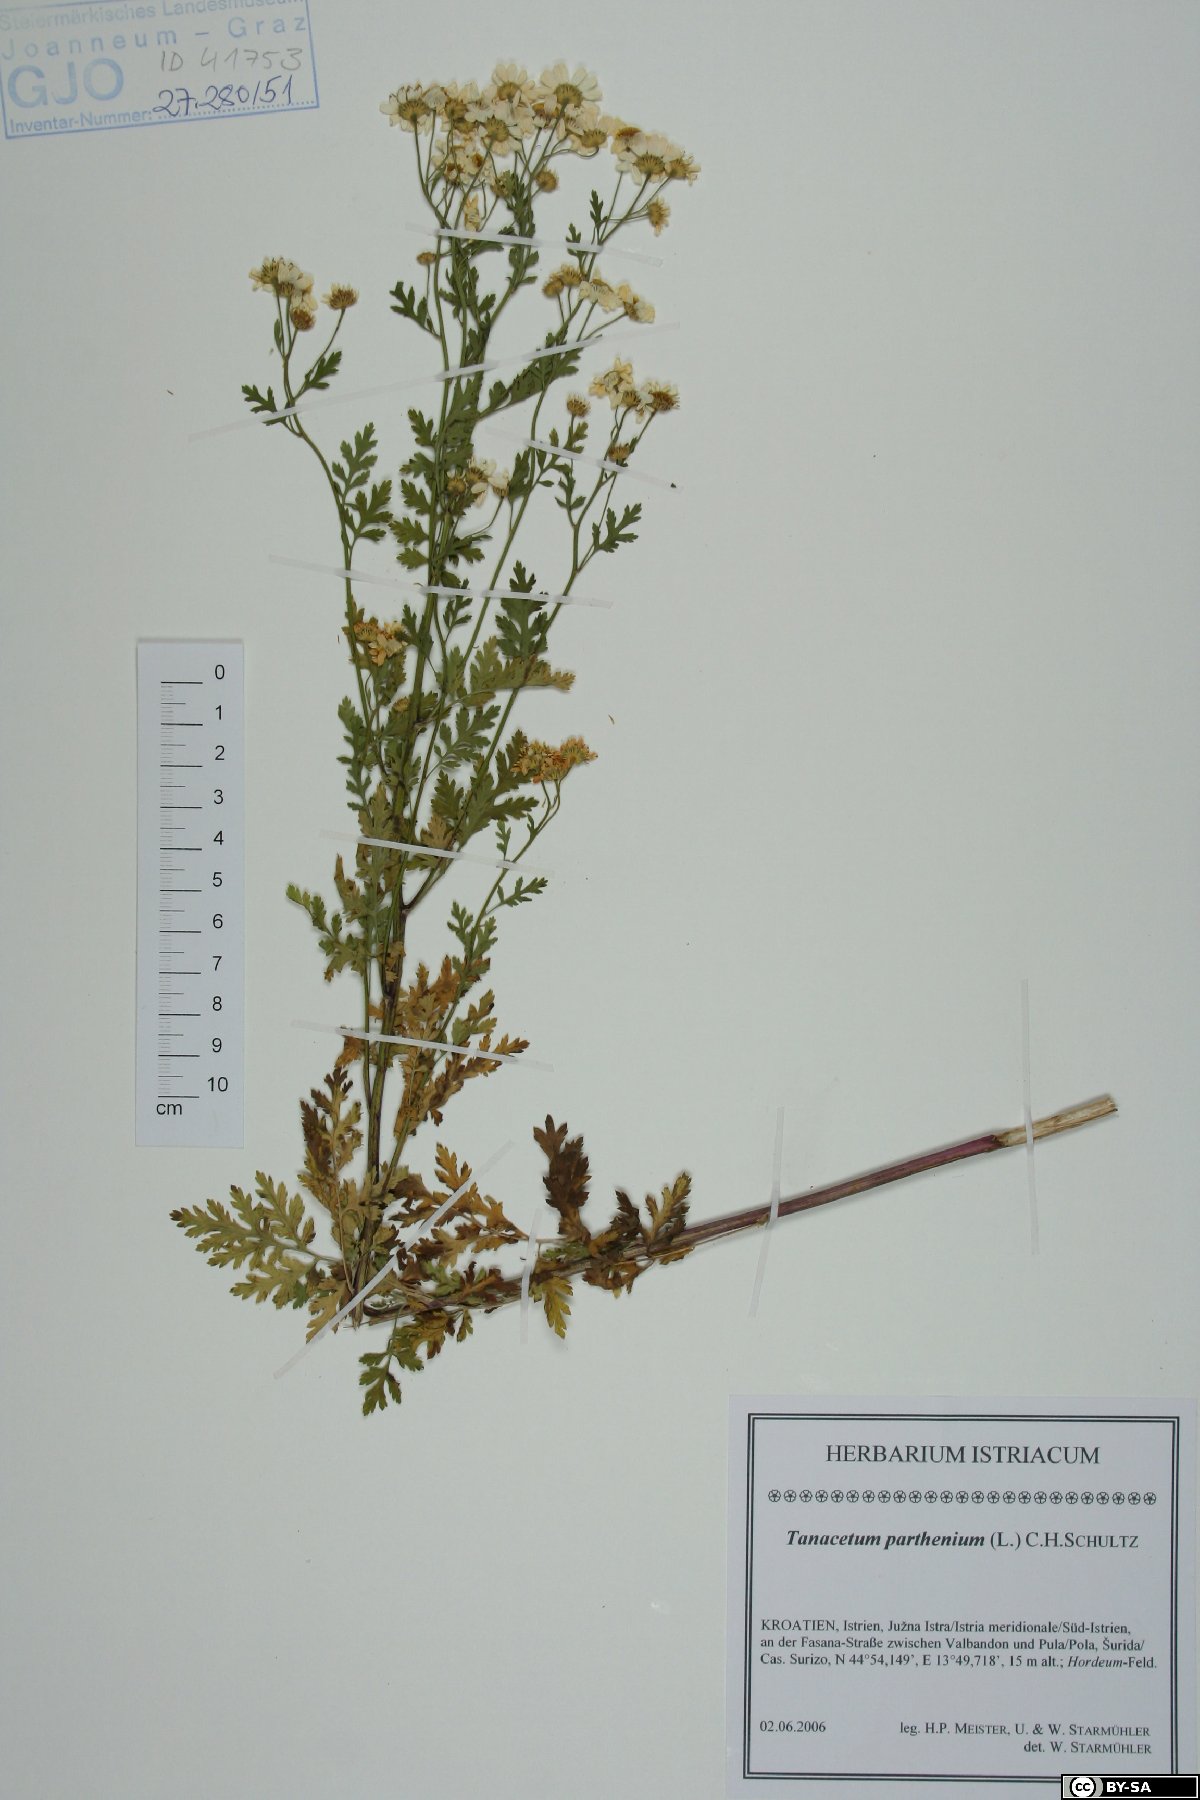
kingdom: Plantae
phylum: Tracheophyta
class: Magnoliopsida
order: Asterales
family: Asteraceae
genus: Tanacetum
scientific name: Tanacetum parthenium
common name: Feverfew
